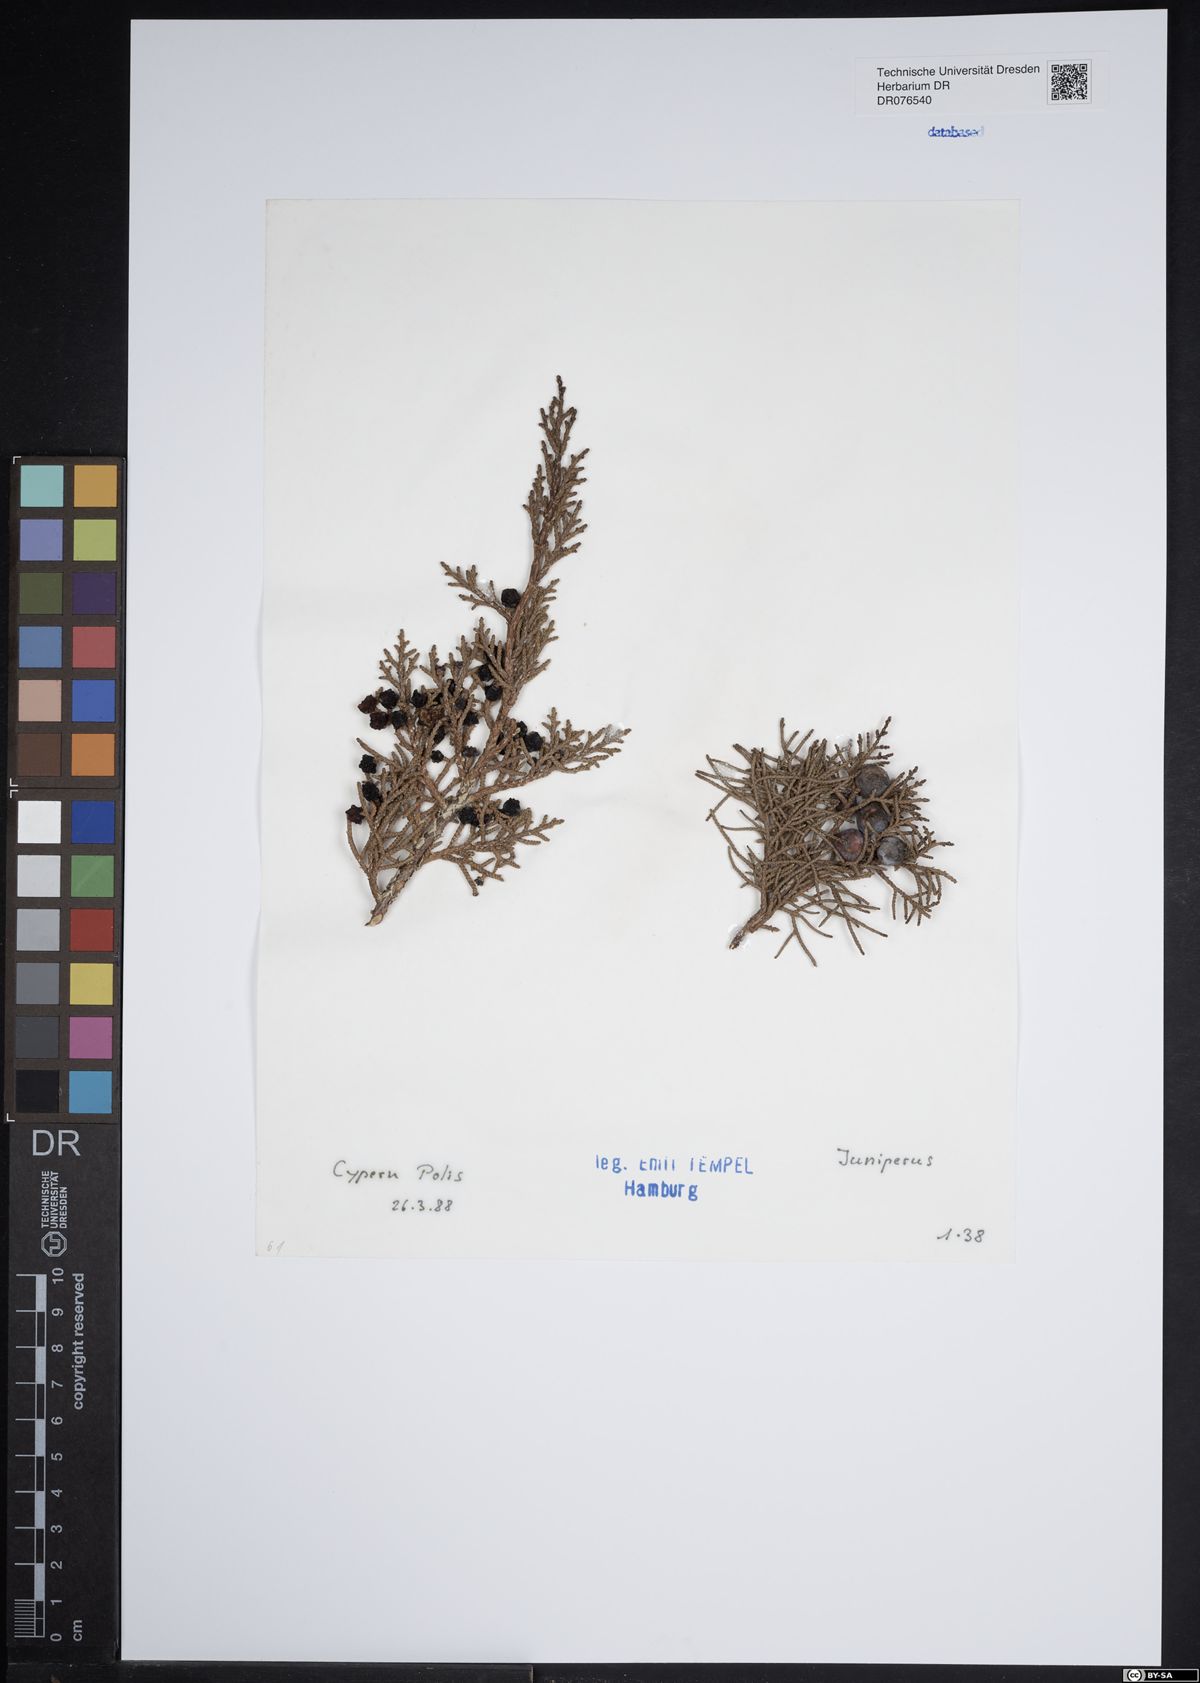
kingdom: Plantae
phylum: Tracheophyta
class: Pinopsida
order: Pinales
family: Cupressaceae
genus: Juniperus
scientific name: Juniperus
